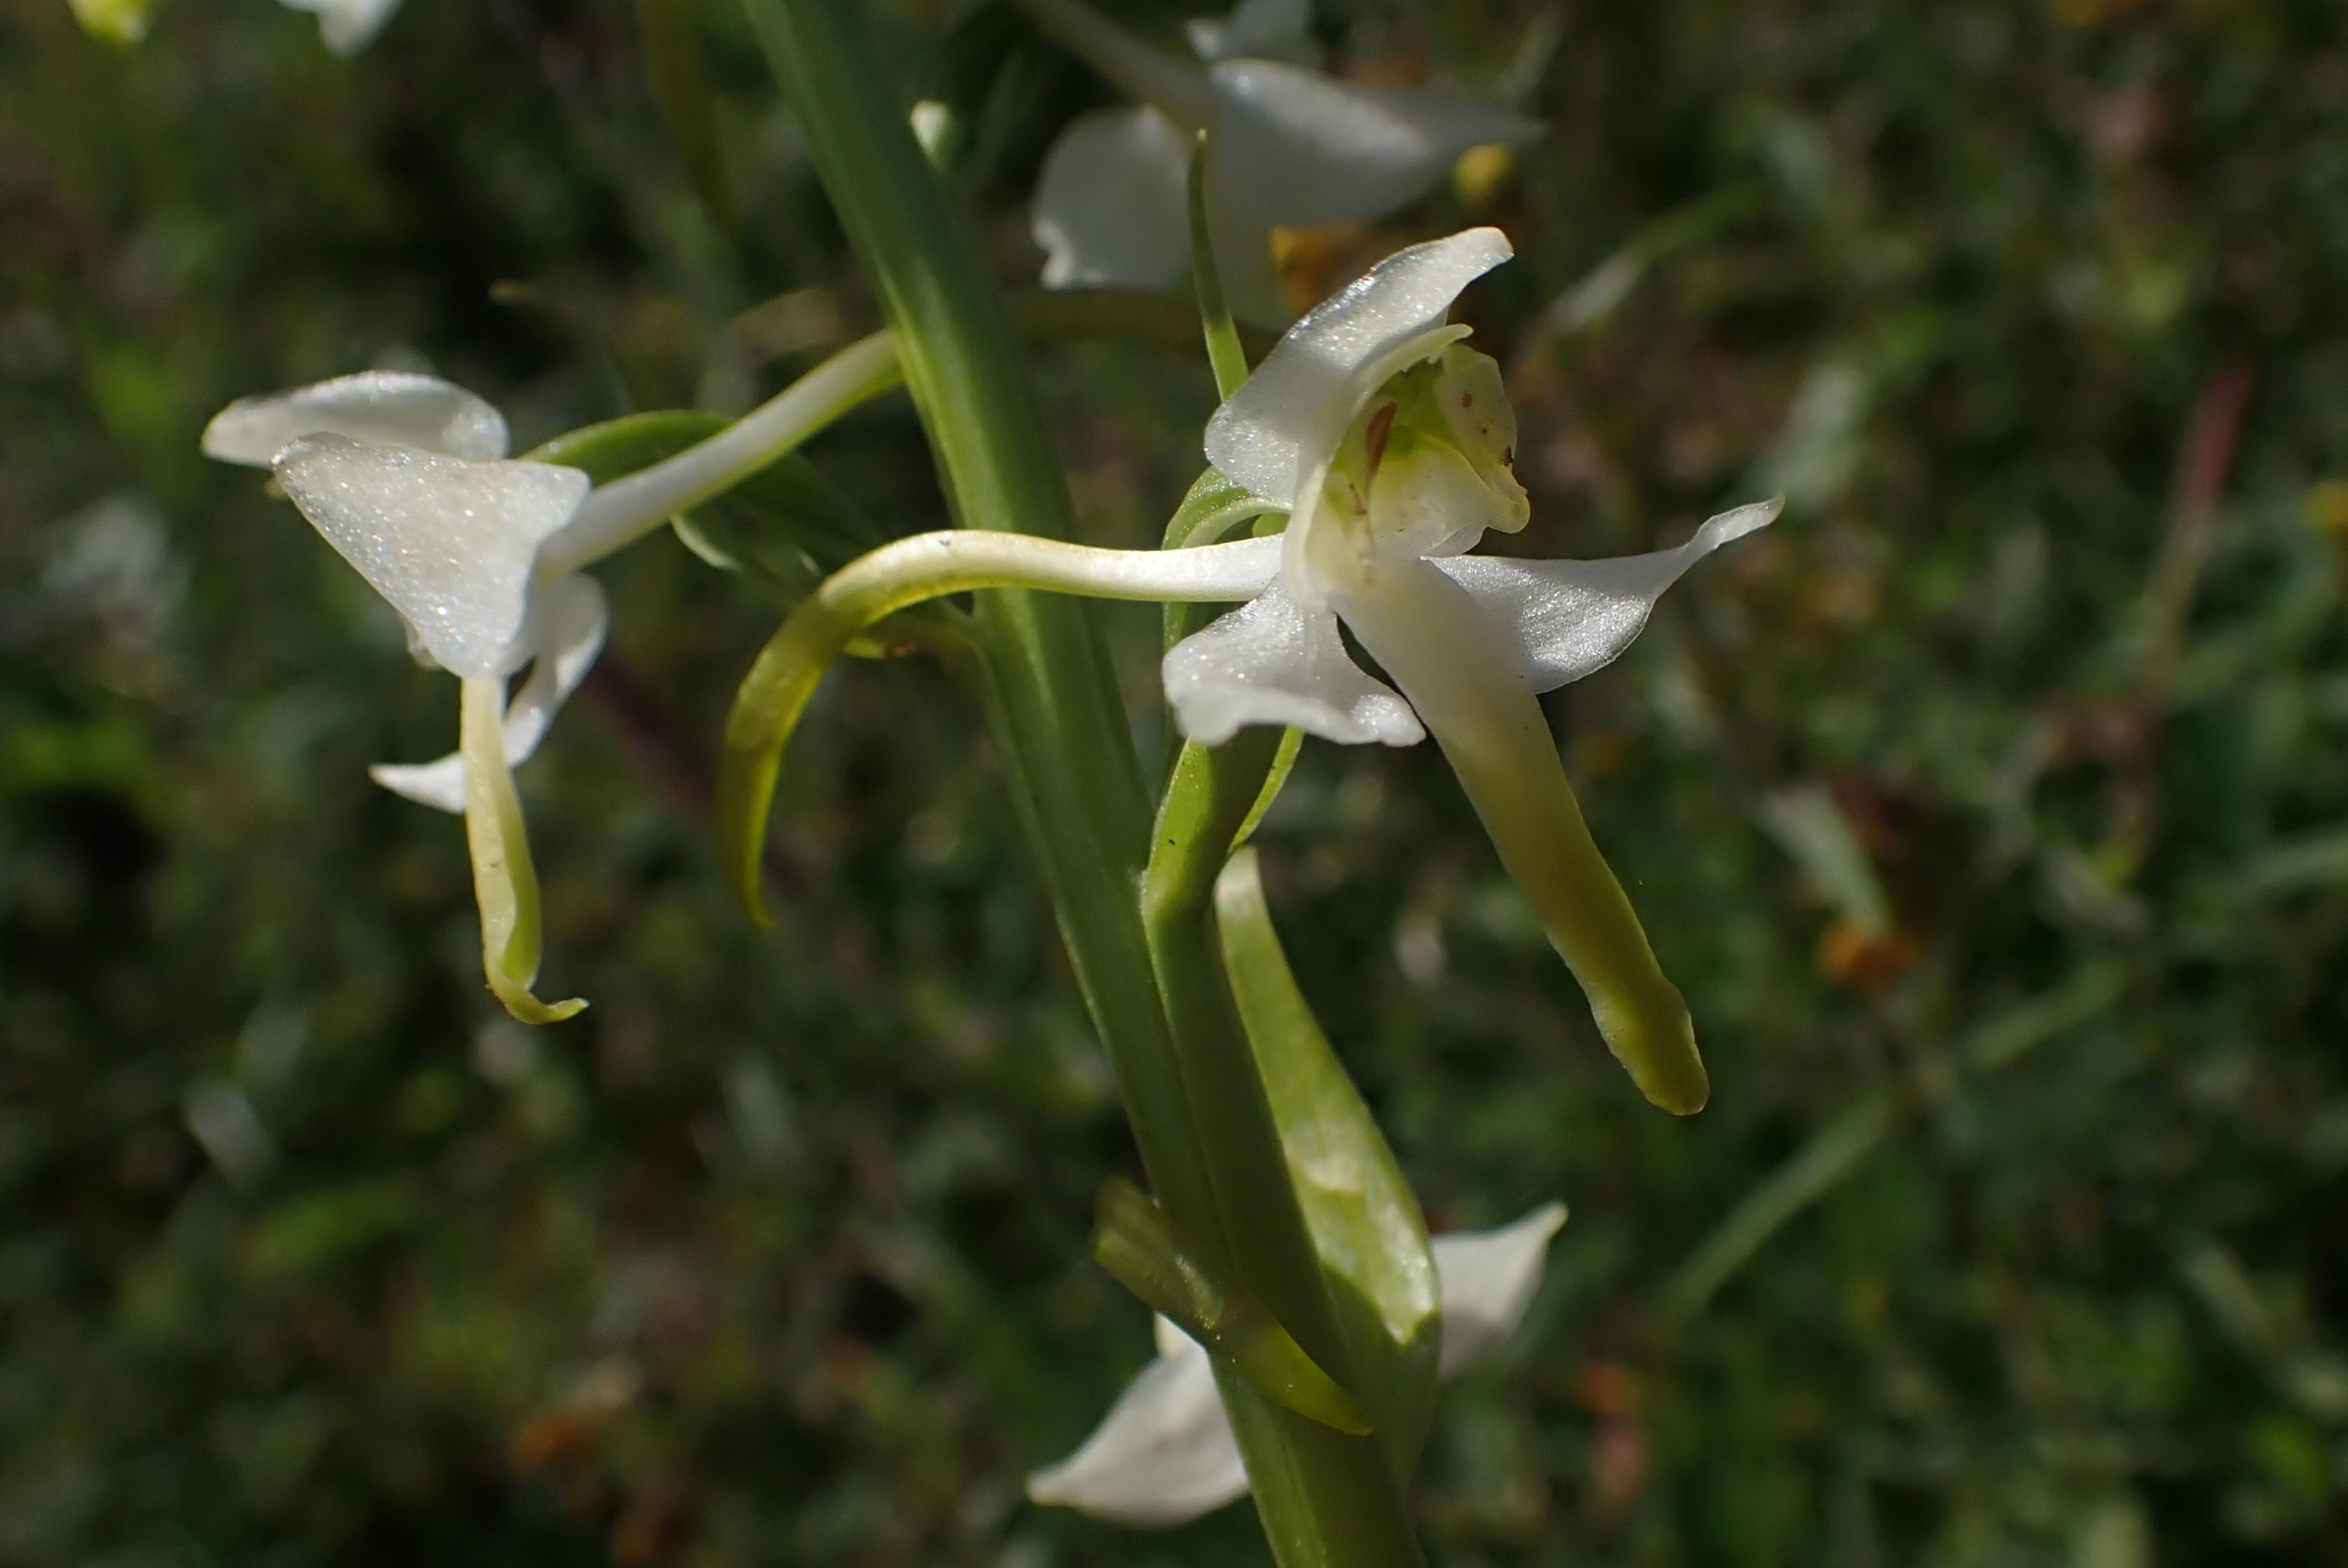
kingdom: Plantae
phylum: Tracheophyta
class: Liliopsida
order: Asparagales
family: Orchidaceae
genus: Platanthera
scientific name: Platanthera chlorantha
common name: Skov-gøgelilje
